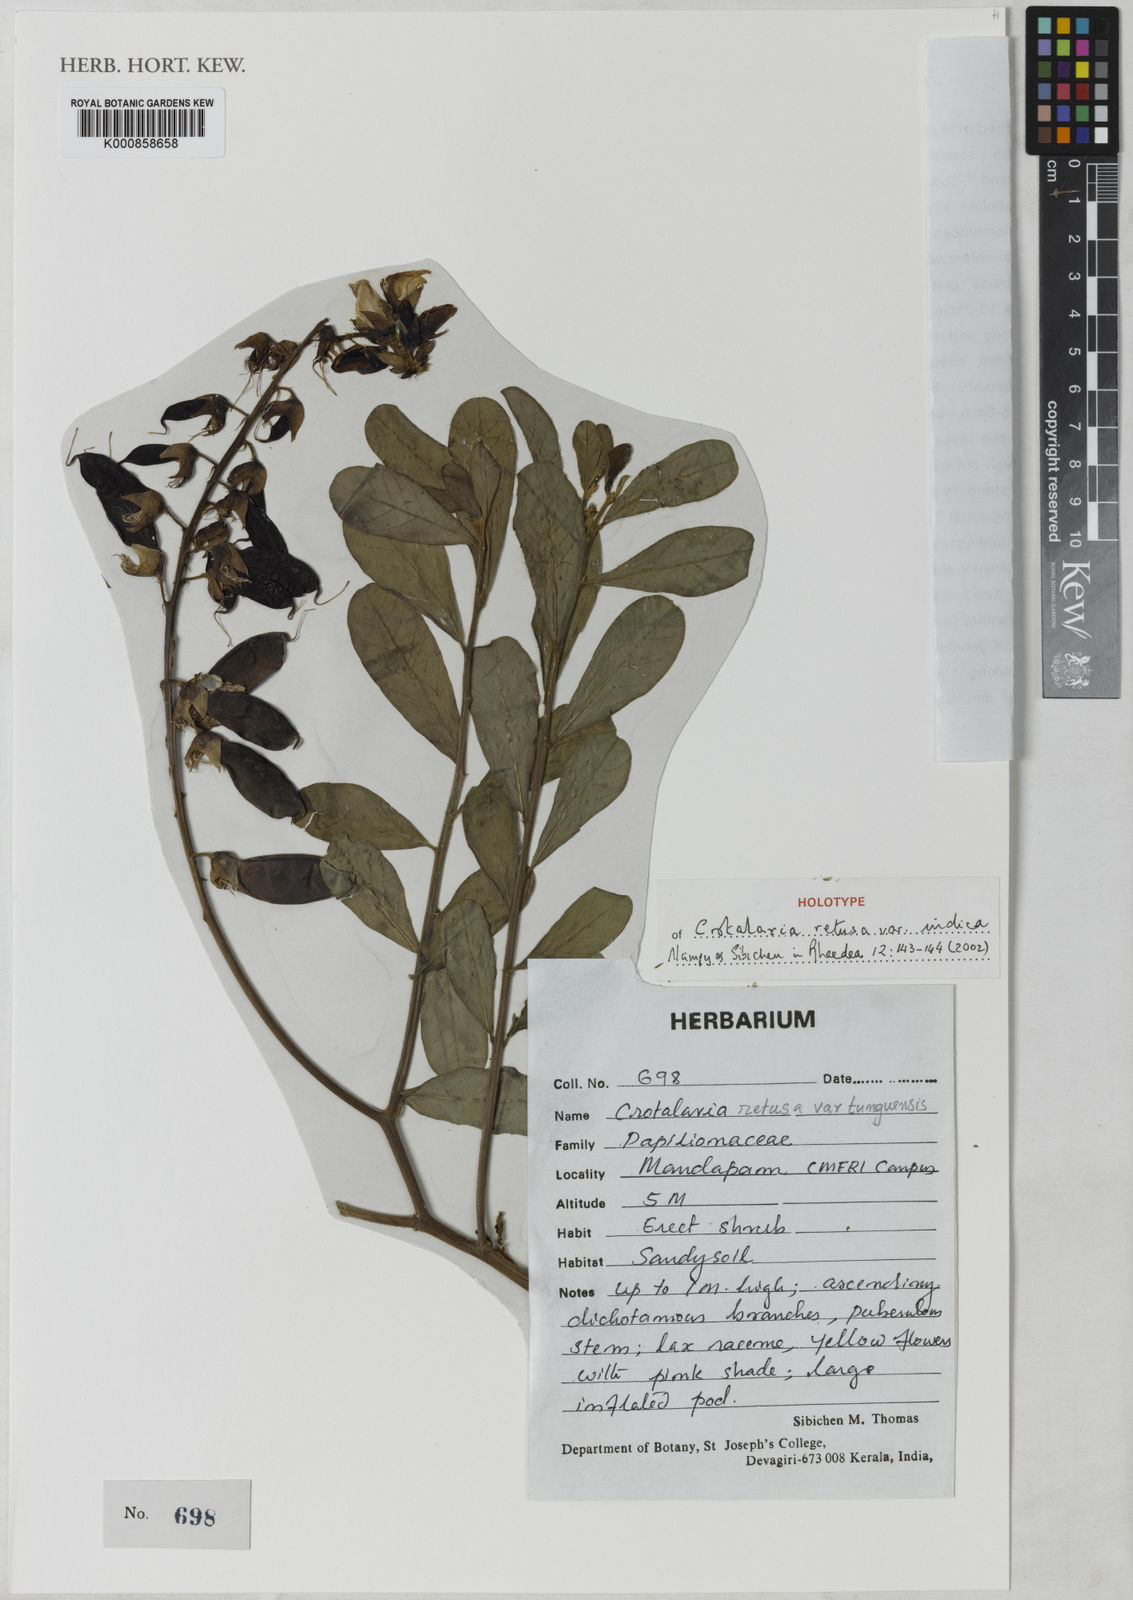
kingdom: Plantae
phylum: Tracheophyta
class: Magnoliopsida
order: Fabales
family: Fabaceae
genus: Crotalaria
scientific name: Crotalaria retusa
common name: Rattleweed
